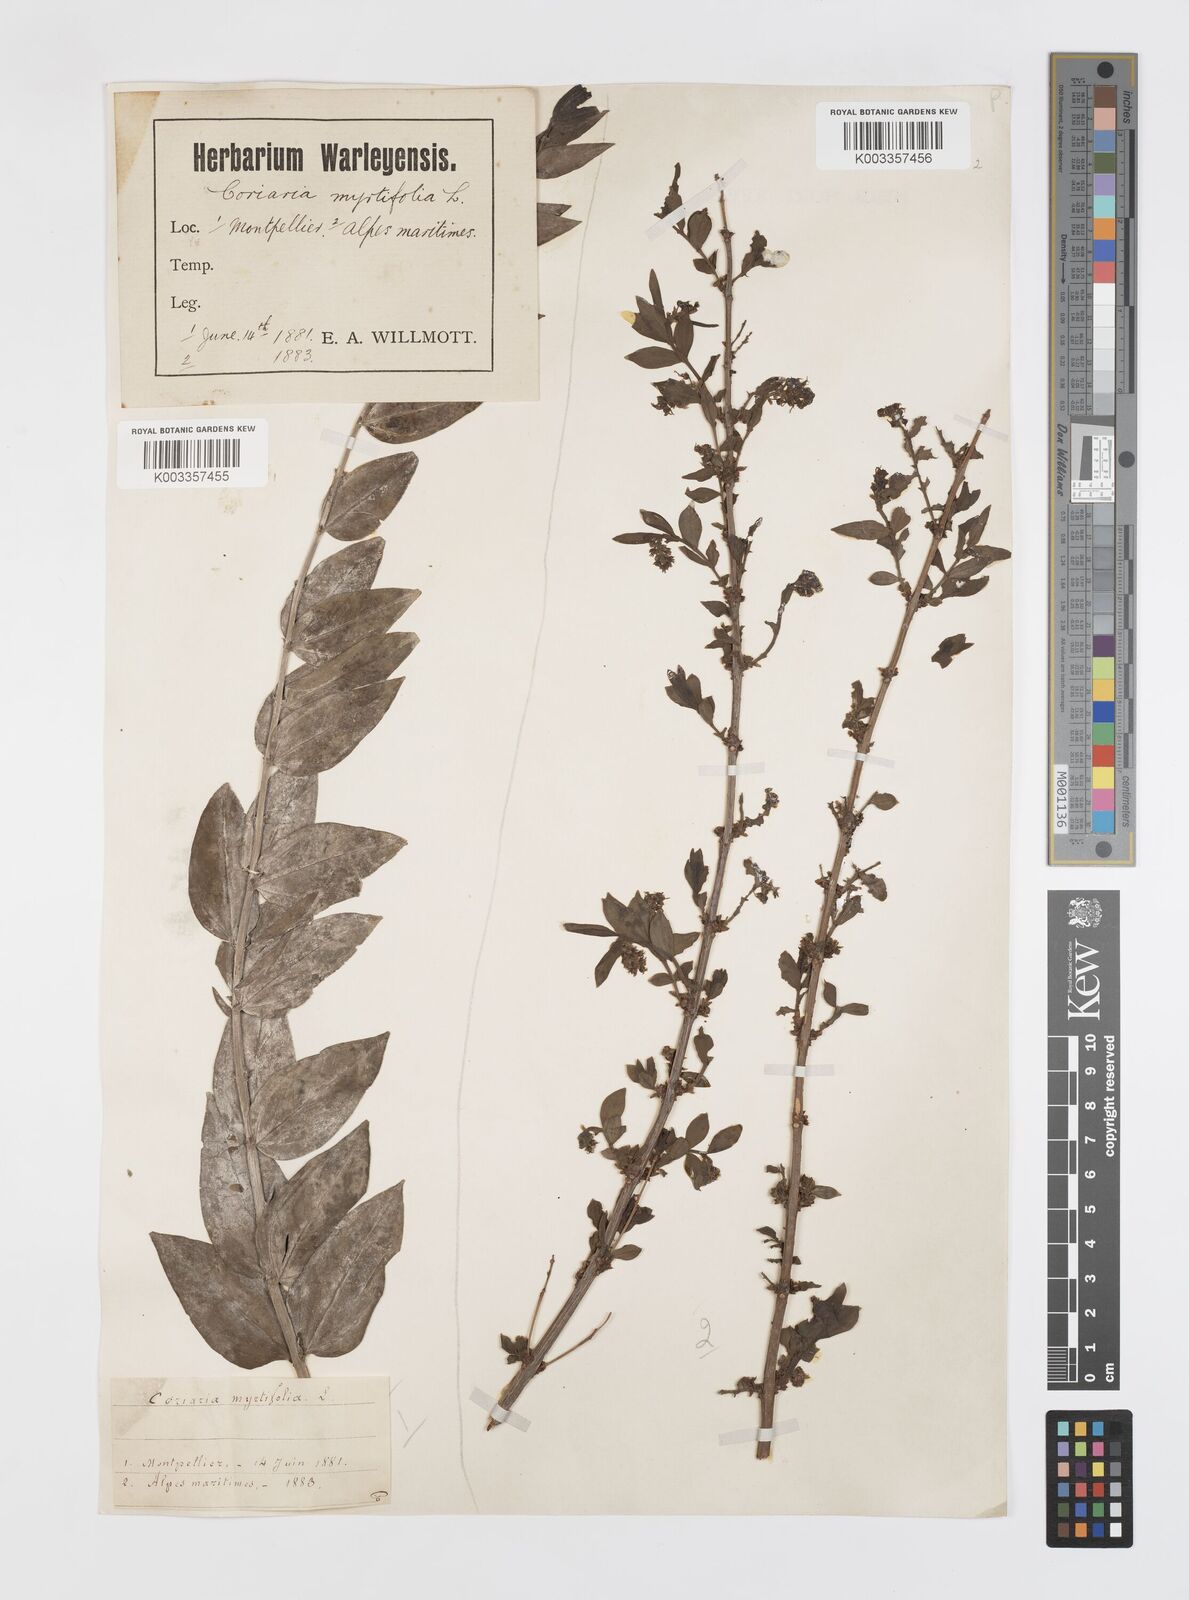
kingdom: Plantae
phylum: Tracheophyta
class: Magnoliopsida
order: Cucurbitales
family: Coriariaceae
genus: Coriaria
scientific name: Coriaria myrtifolia
